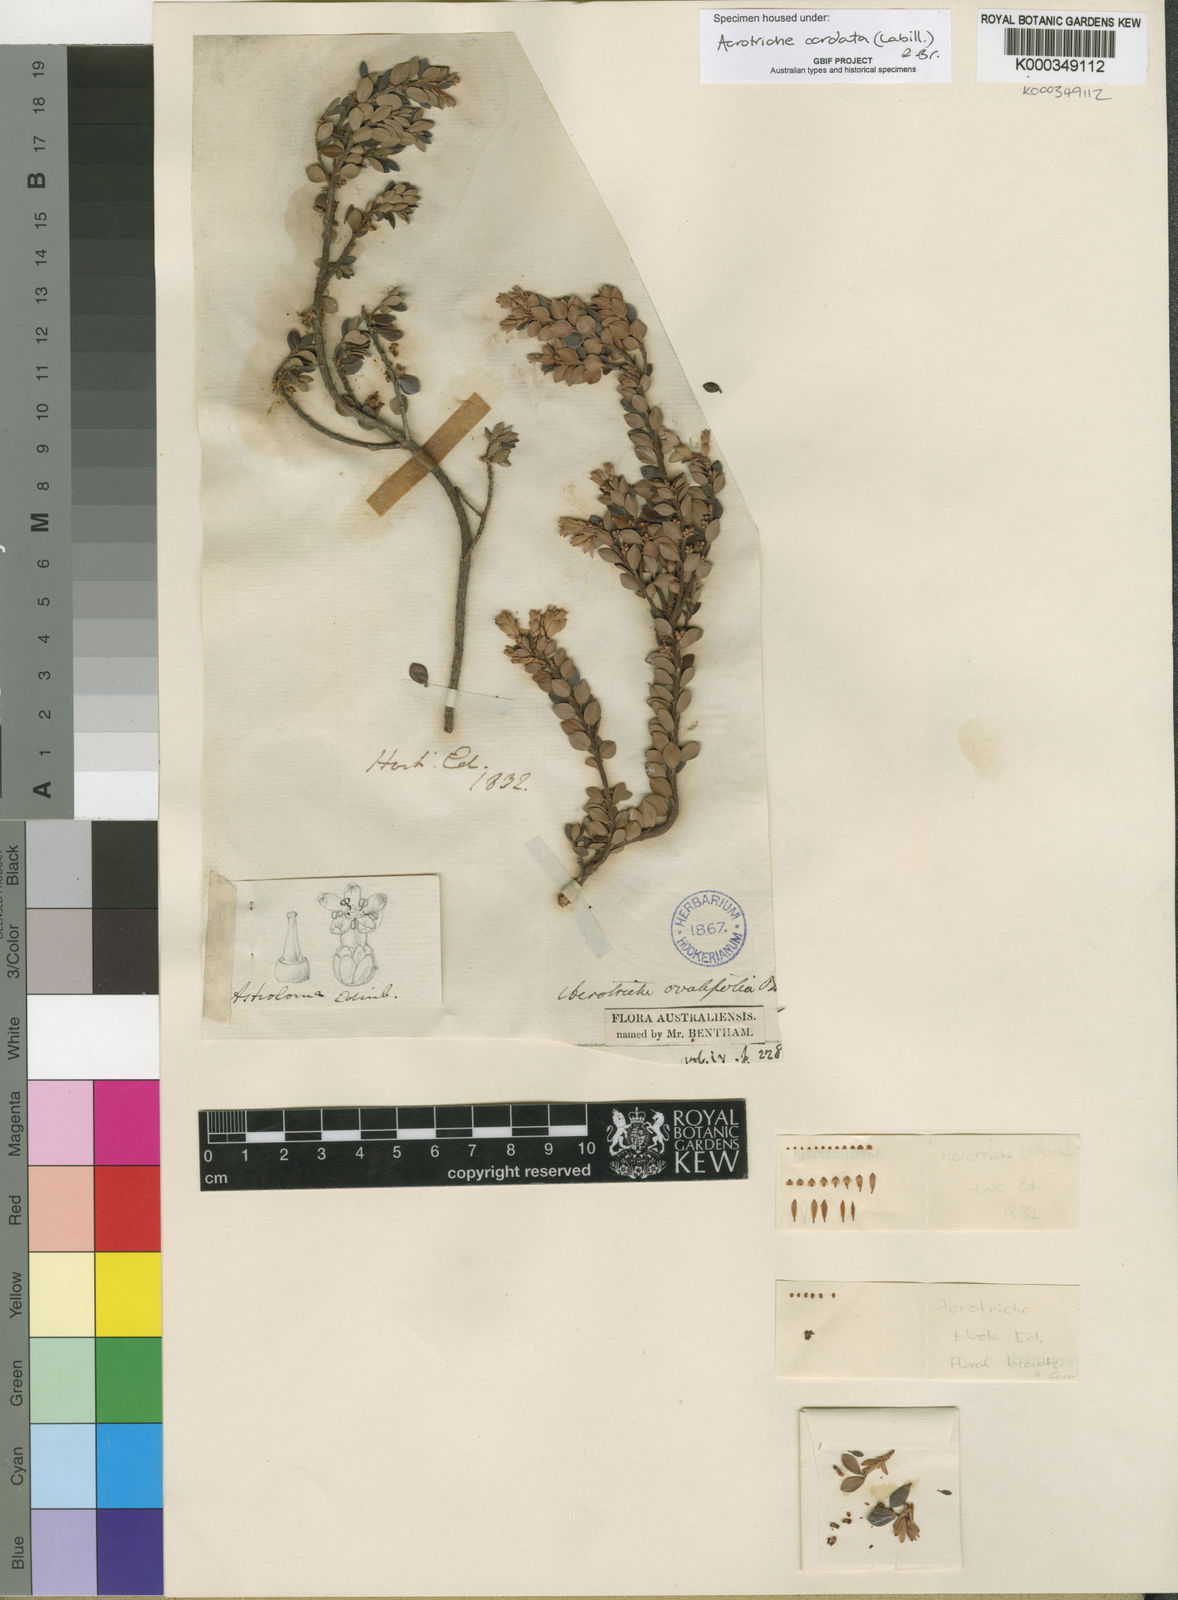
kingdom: Plantae
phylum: Tracheophyta
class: Magnoliopsida
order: Ericales
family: Ericaceae
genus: Acrotriche
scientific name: Acrotriche cordata
